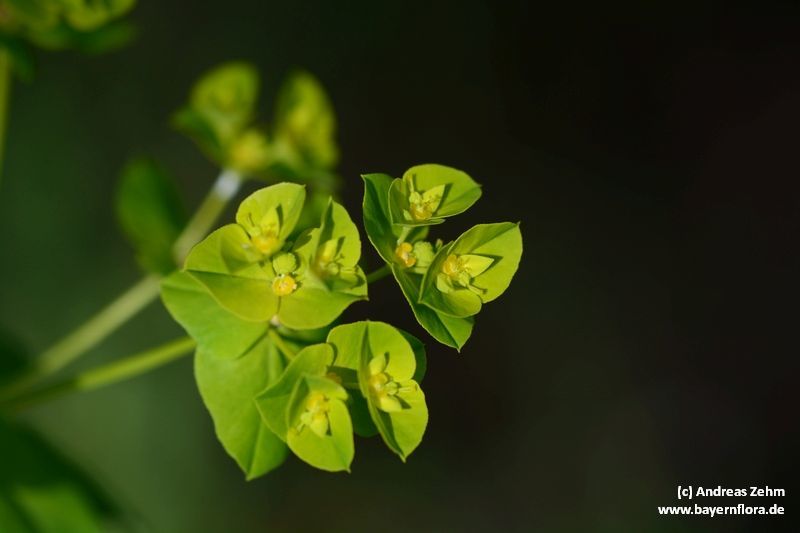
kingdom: Plantae
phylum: Tracheophyta
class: Magnoliopsida
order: Malpighiales
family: Euphorbiaceae
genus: Euphorbia
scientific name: Euphorbia platyphyllos
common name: Broad-leaved spurge
